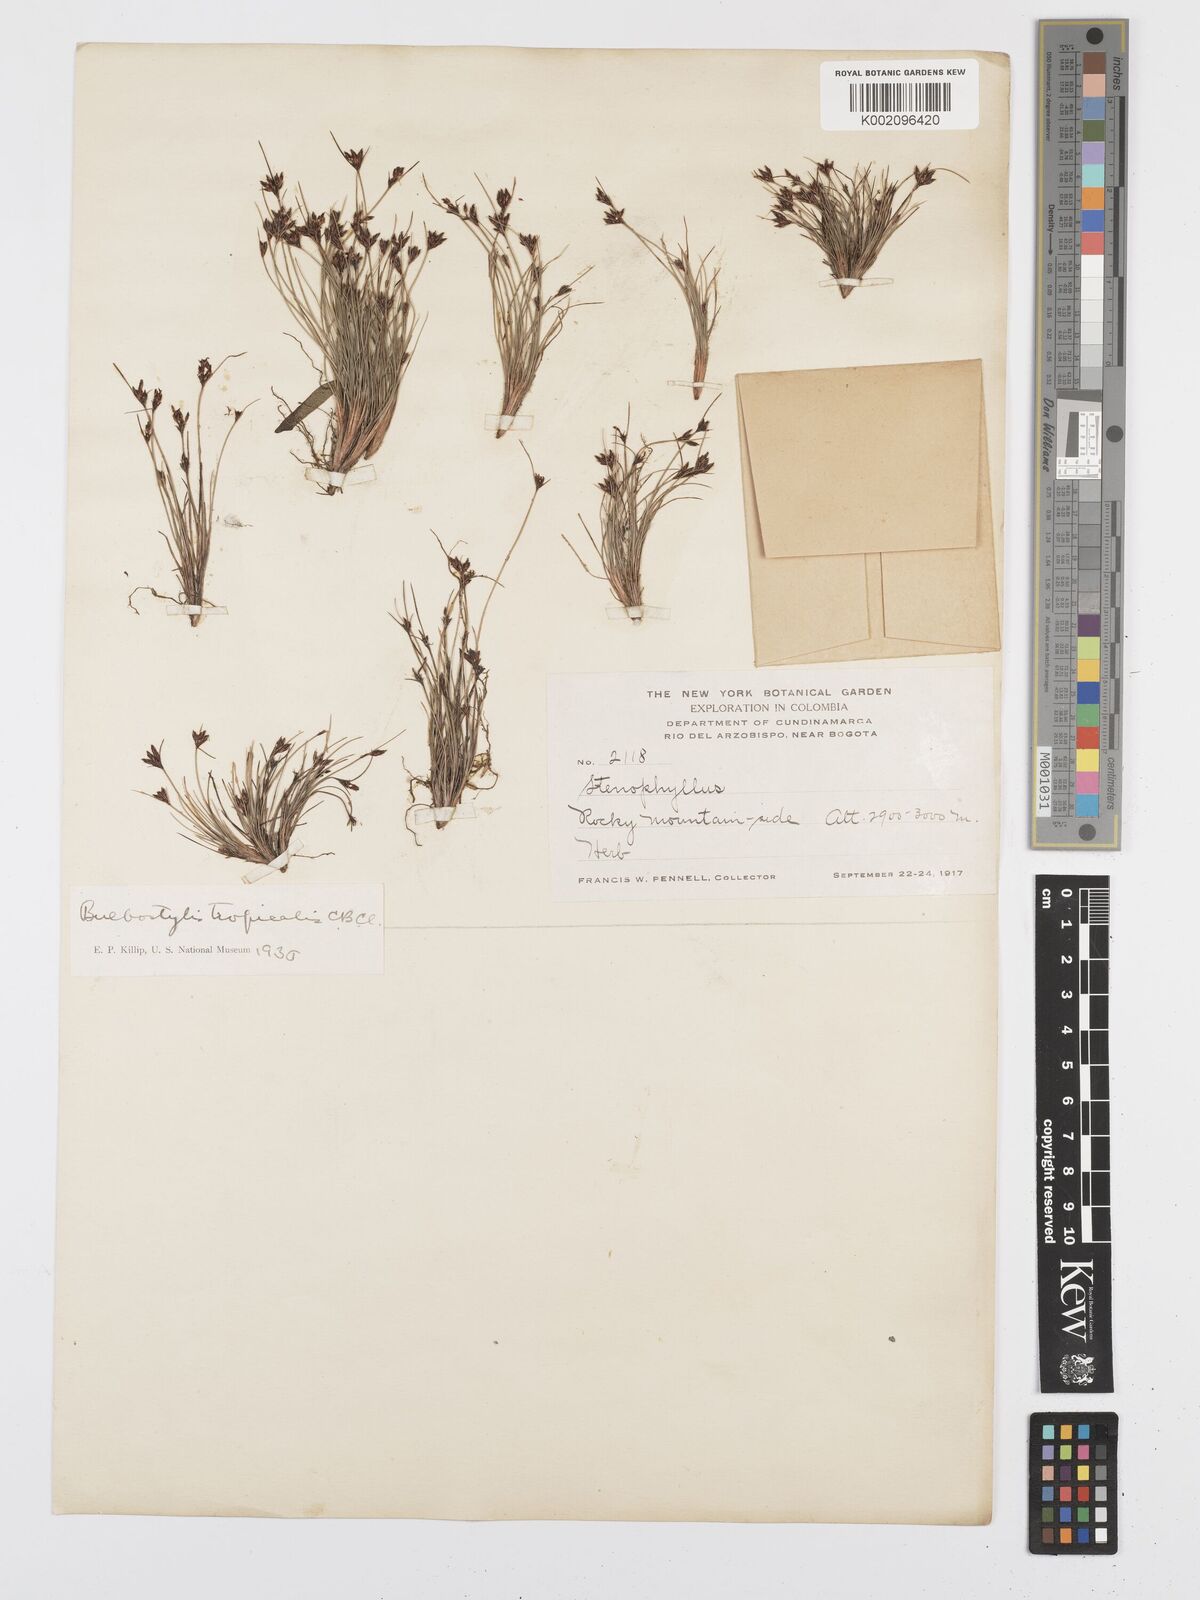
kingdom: Plantae
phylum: Tracheophyta
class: Liliopsida
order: Poales
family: Cyperaceae
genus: Bulbostylis
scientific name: Bulbostylis juncoides
